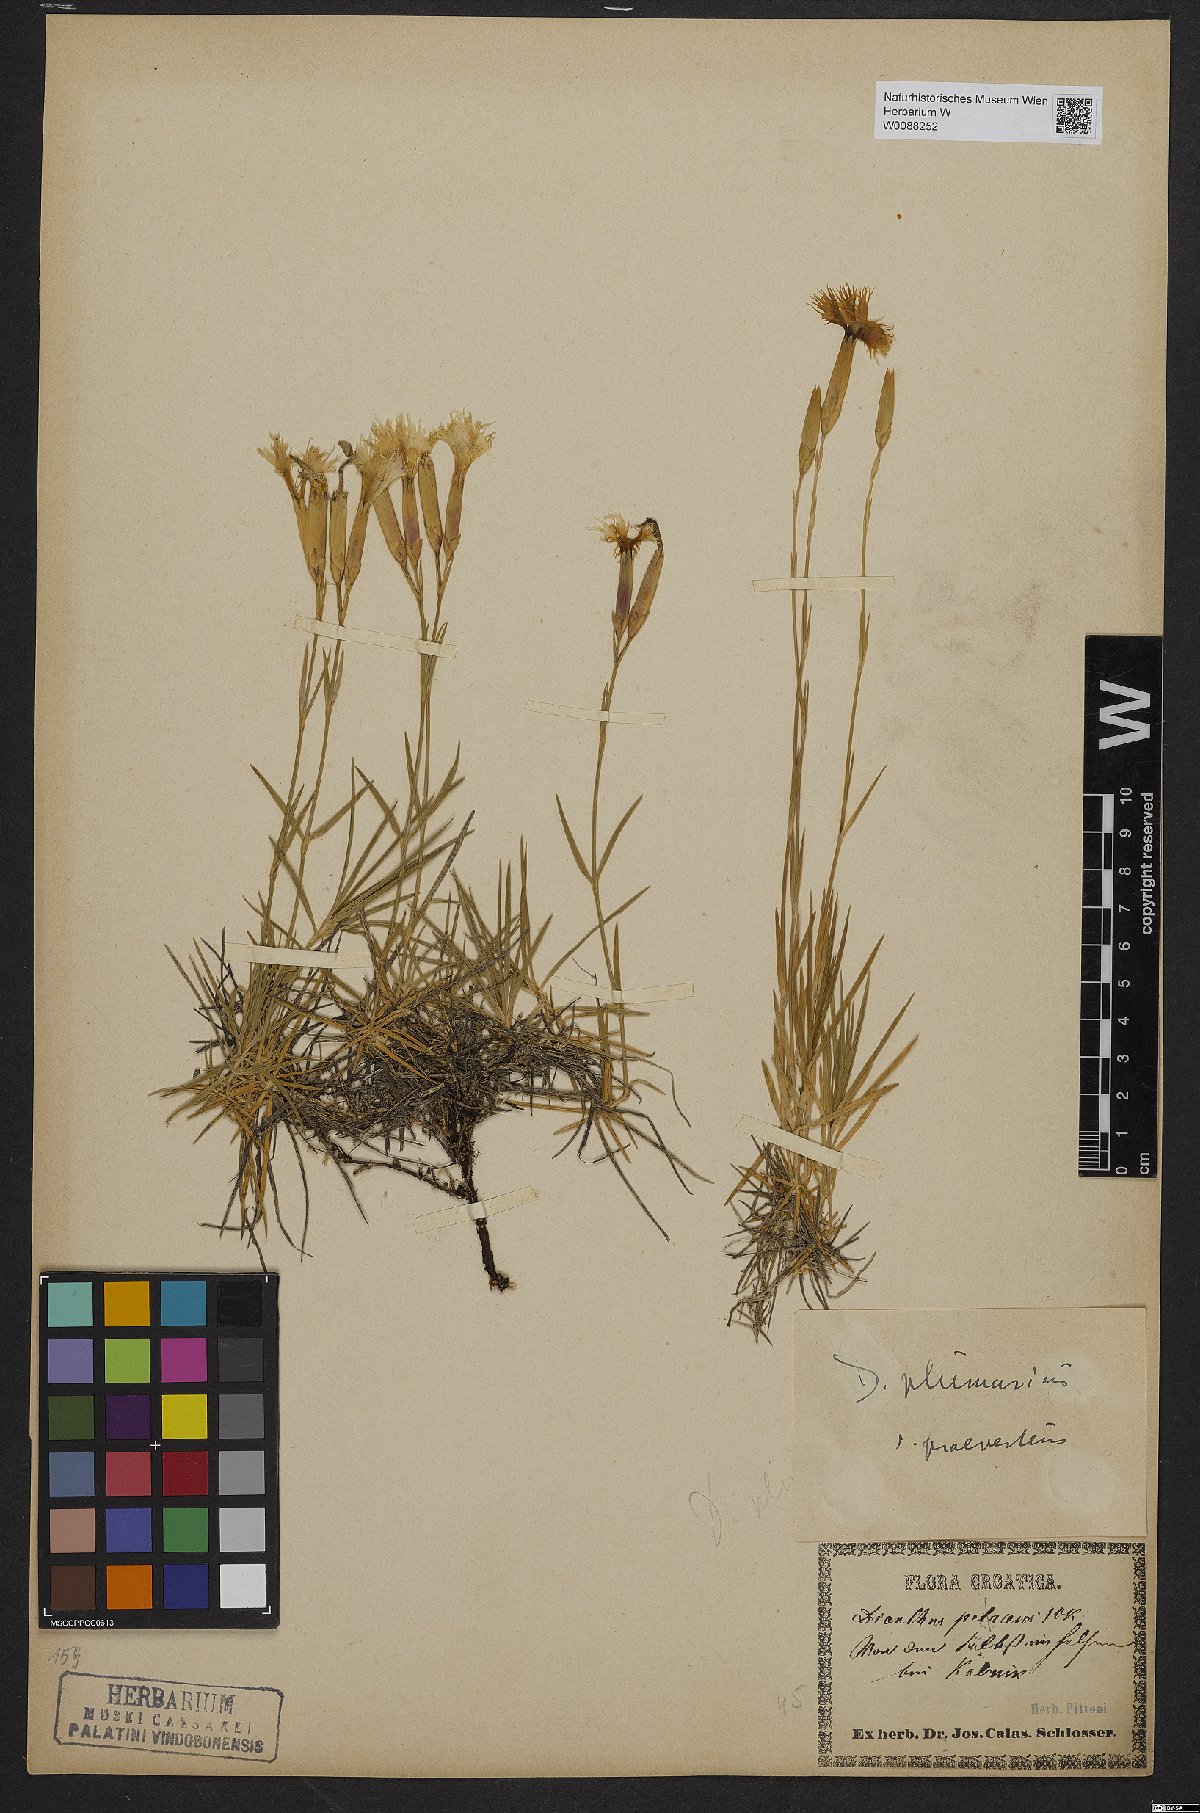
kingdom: Plantae
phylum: Tracheophyta
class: Magnoliopsida
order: Caryophyllales
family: Caryophyllaceae
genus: Dianthus
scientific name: Dianthus plumarius
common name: Pink
